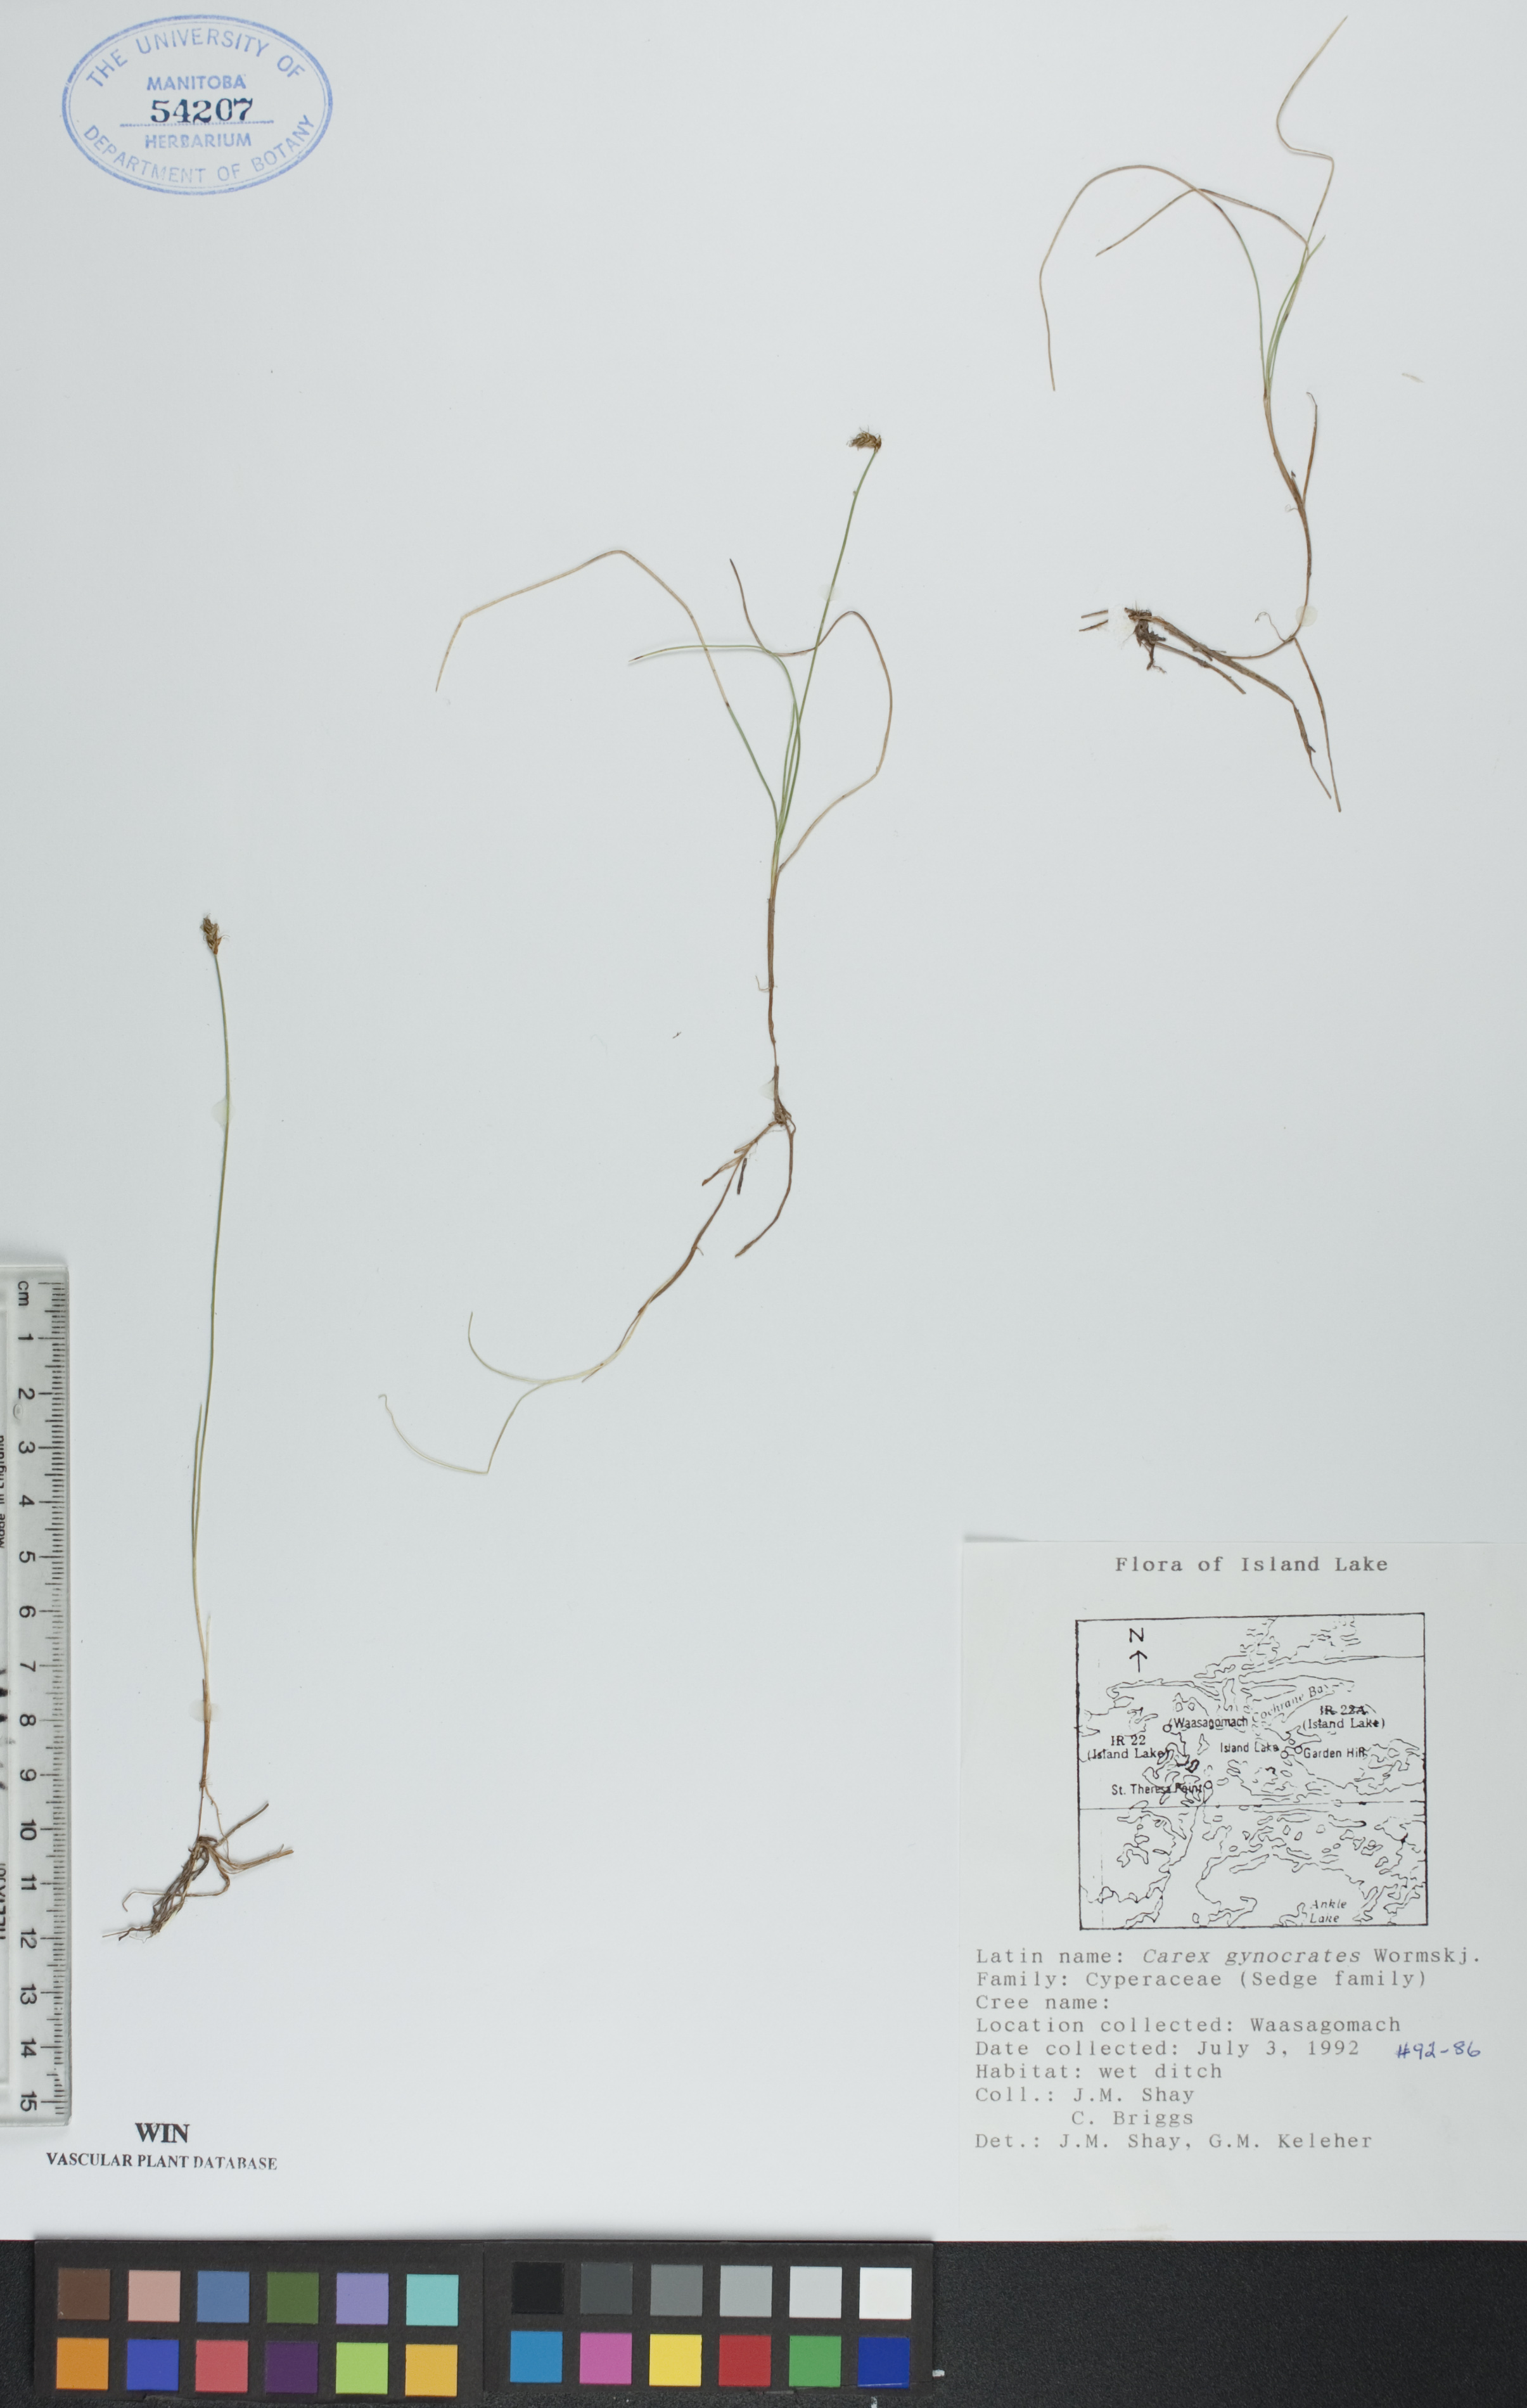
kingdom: Plantae
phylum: Tracheophyta
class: Liliopsida
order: Poales
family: Cyperaceae
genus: Carex
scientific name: Carex nardina
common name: Nard sedge
